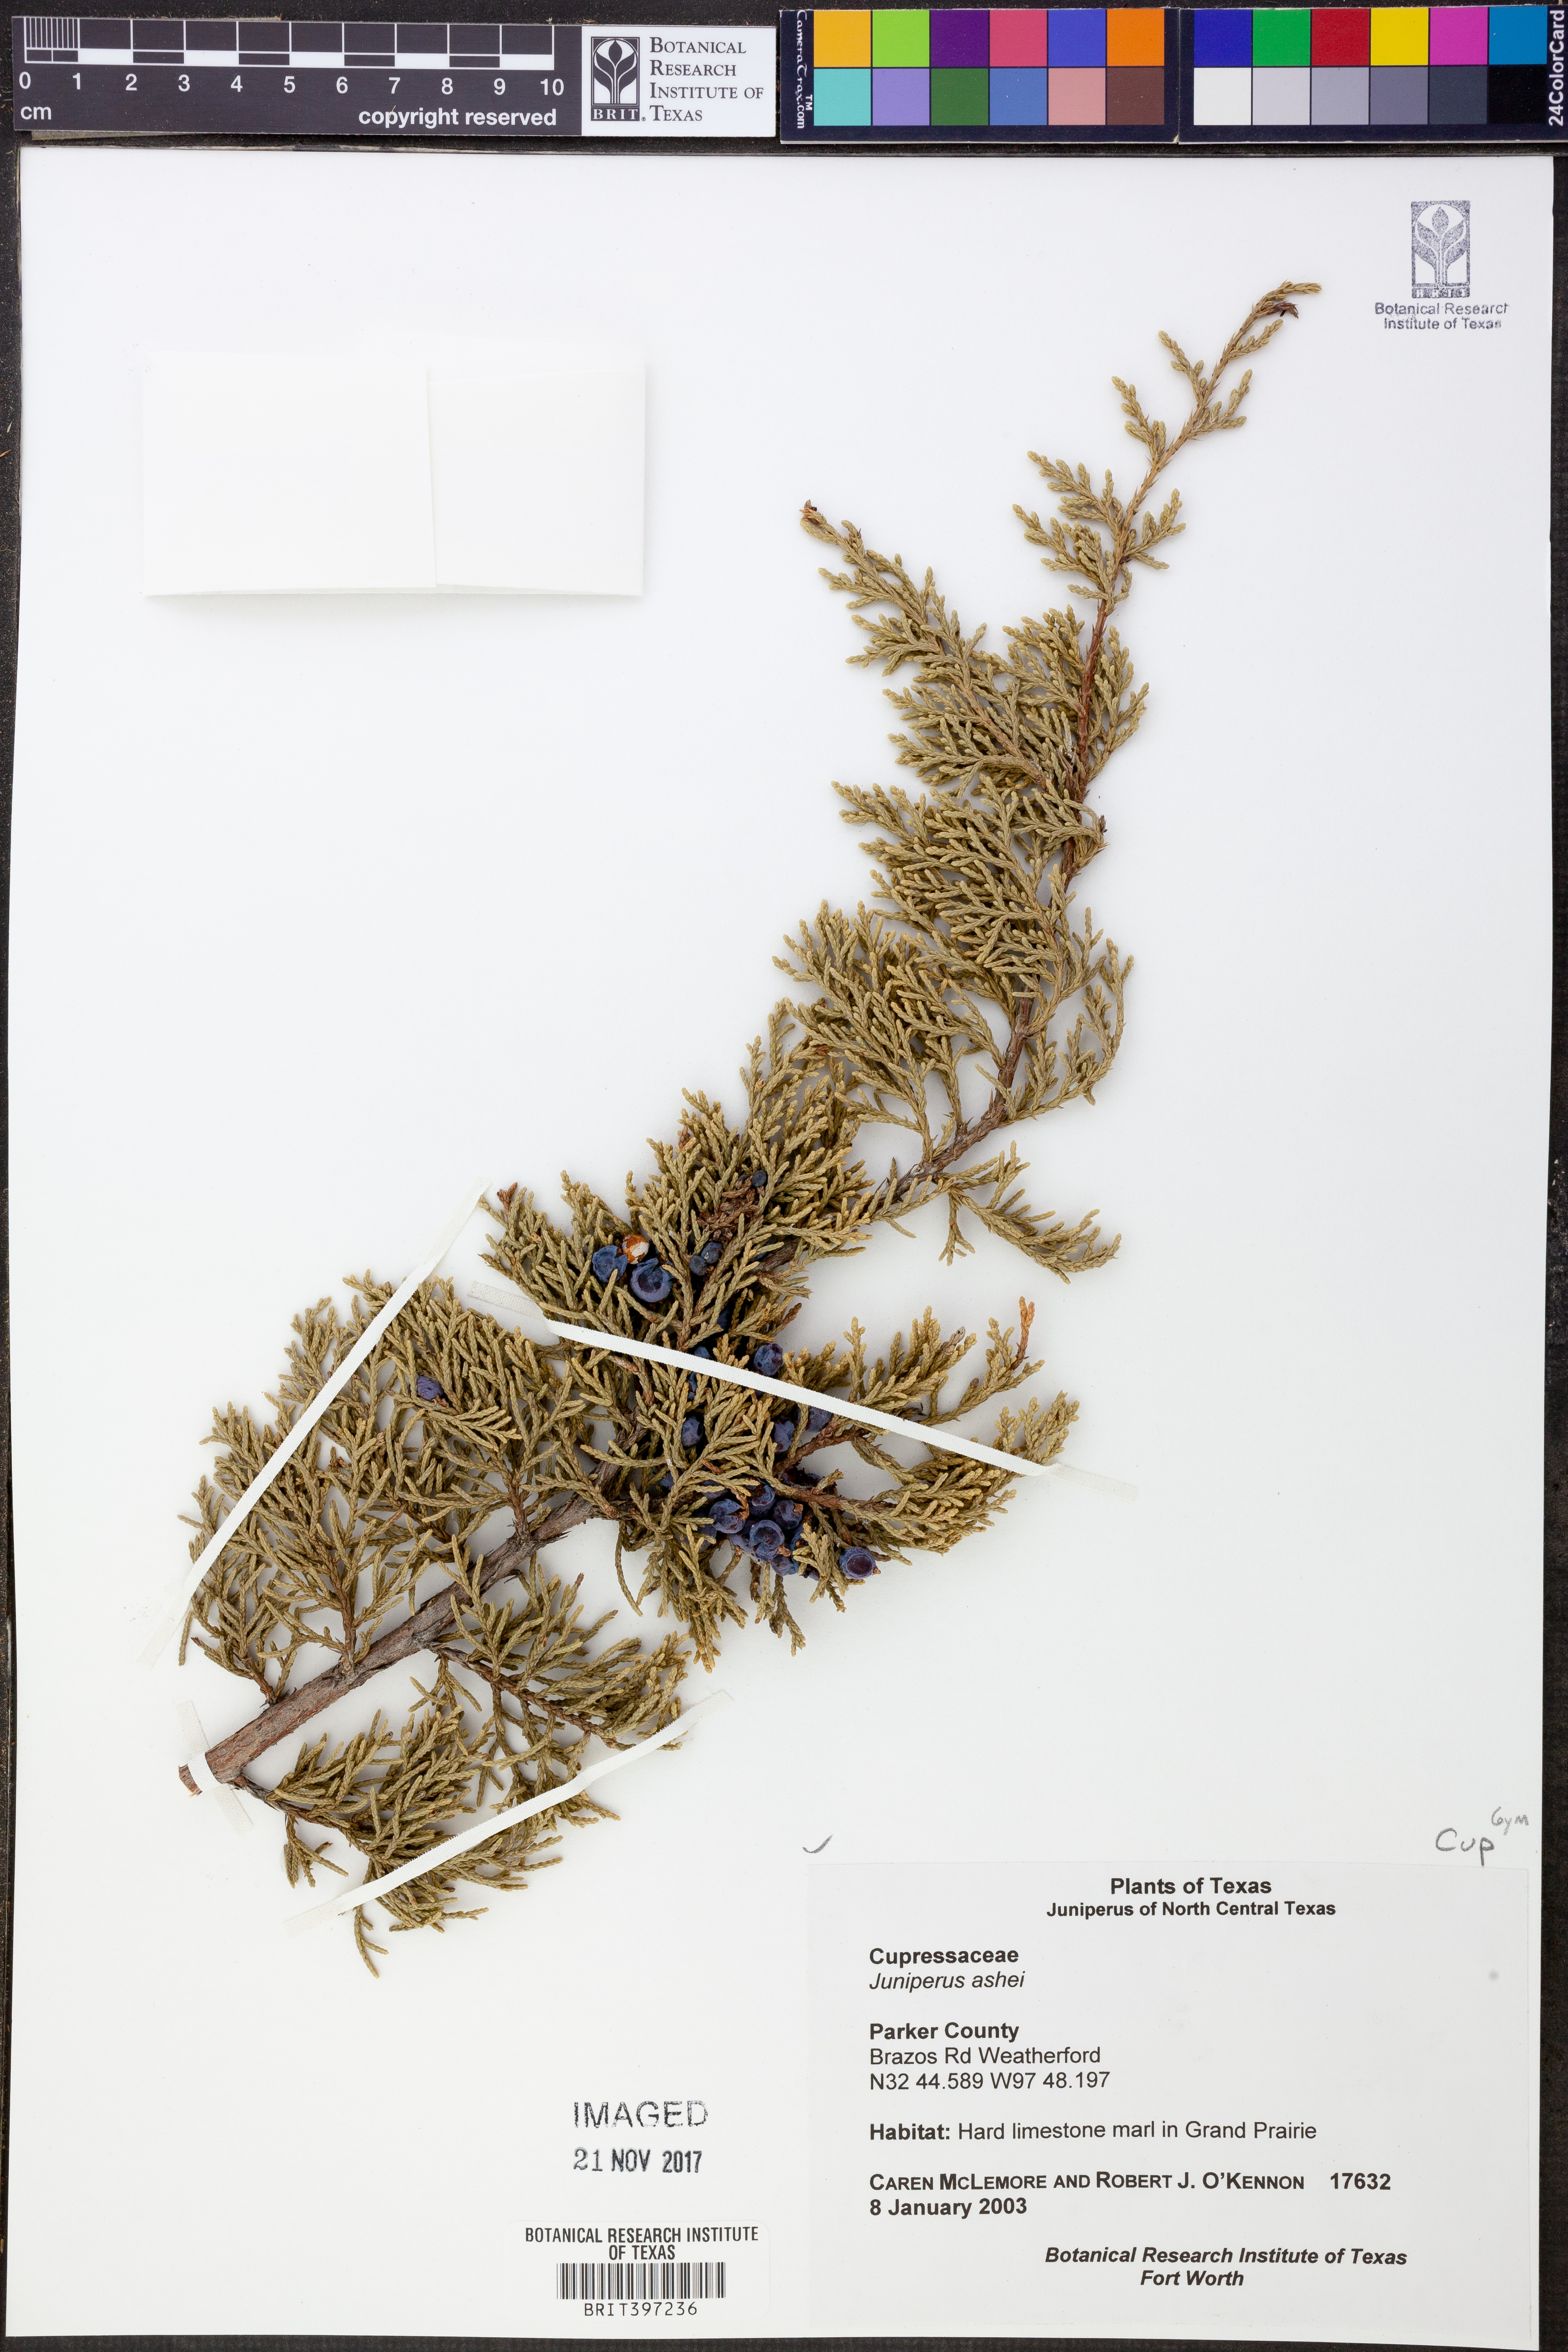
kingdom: Plantae
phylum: Tracheophyta
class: Pinopsida
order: Pinales
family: Cupressaceae
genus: Juniperus
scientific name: Juniperus ashei
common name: Mexican juniper
